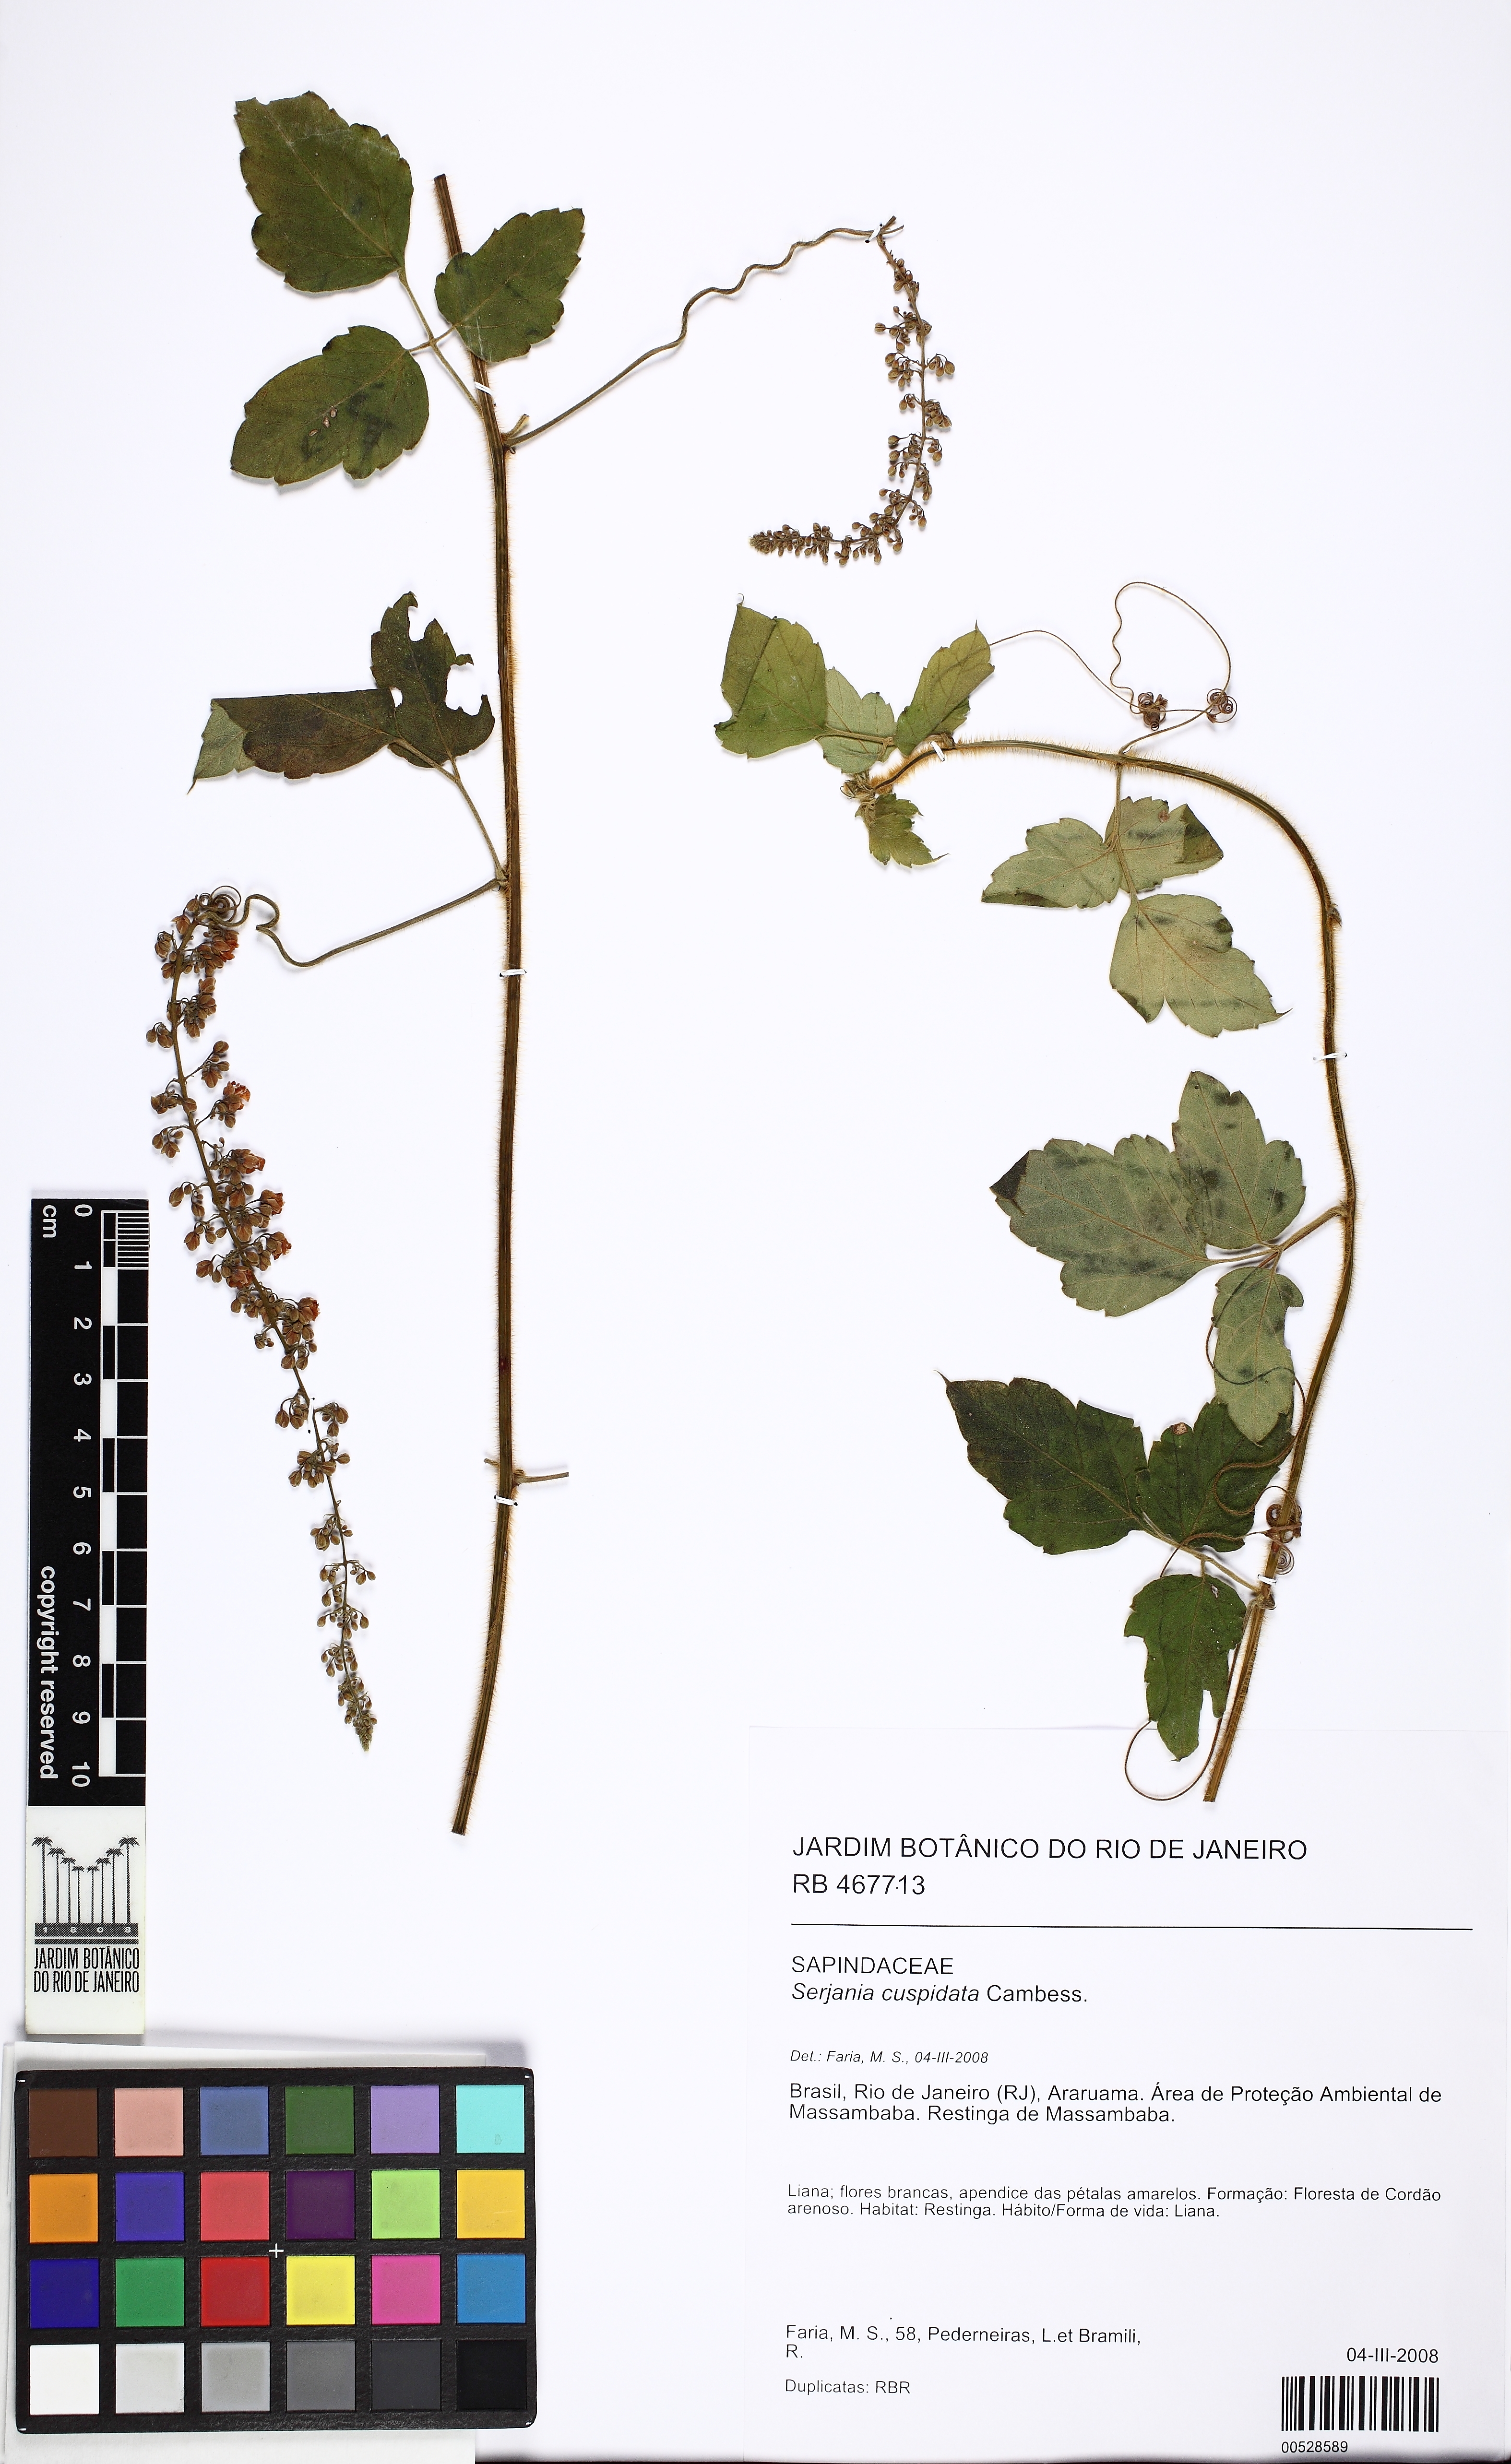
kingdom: Plantae
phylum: Tracheophyta
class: Magnoliopsida
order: Sapindales
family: Sapindaceae
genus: Serjania
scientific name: Serjania ferruginea
